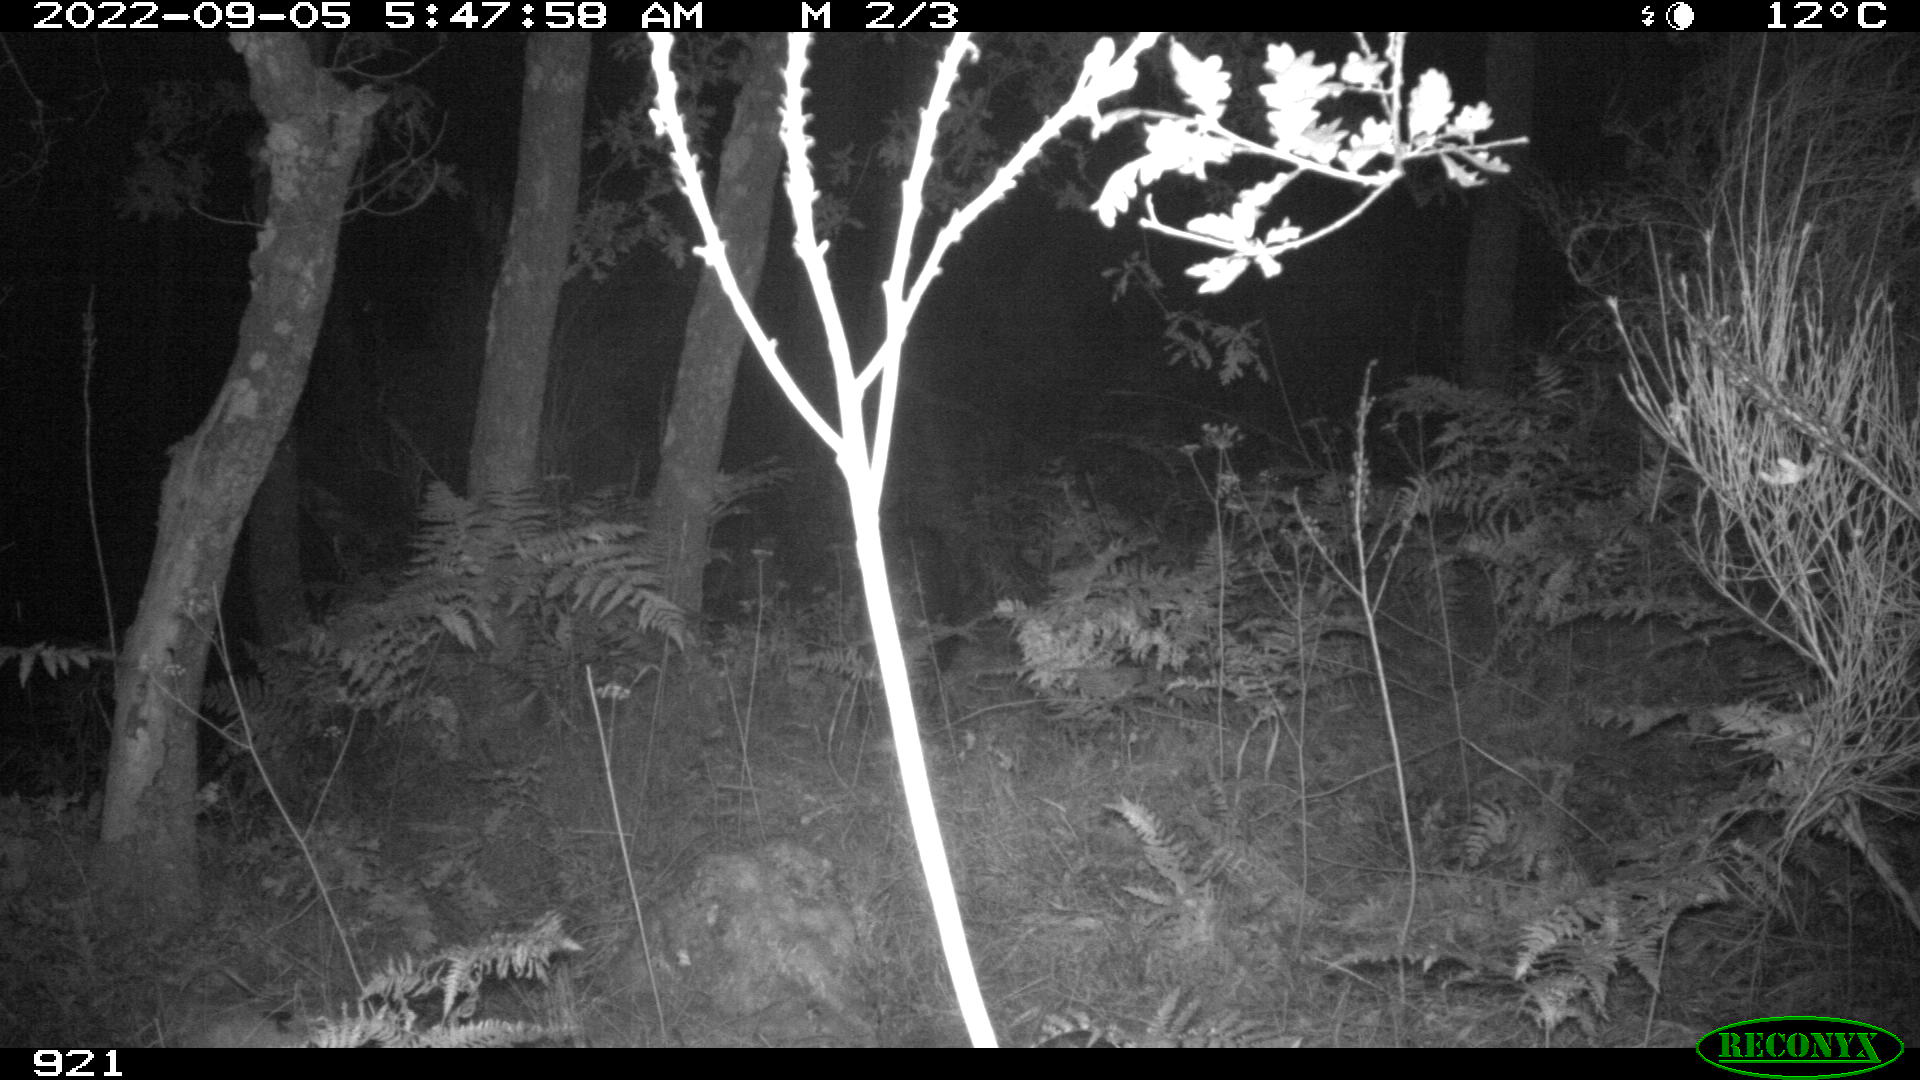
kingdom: Animalia
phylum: Chordata
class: Mammalia
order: Artiodactyla
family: Suidae
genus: Sus
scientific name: Sus scrofa
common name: Wild boar
